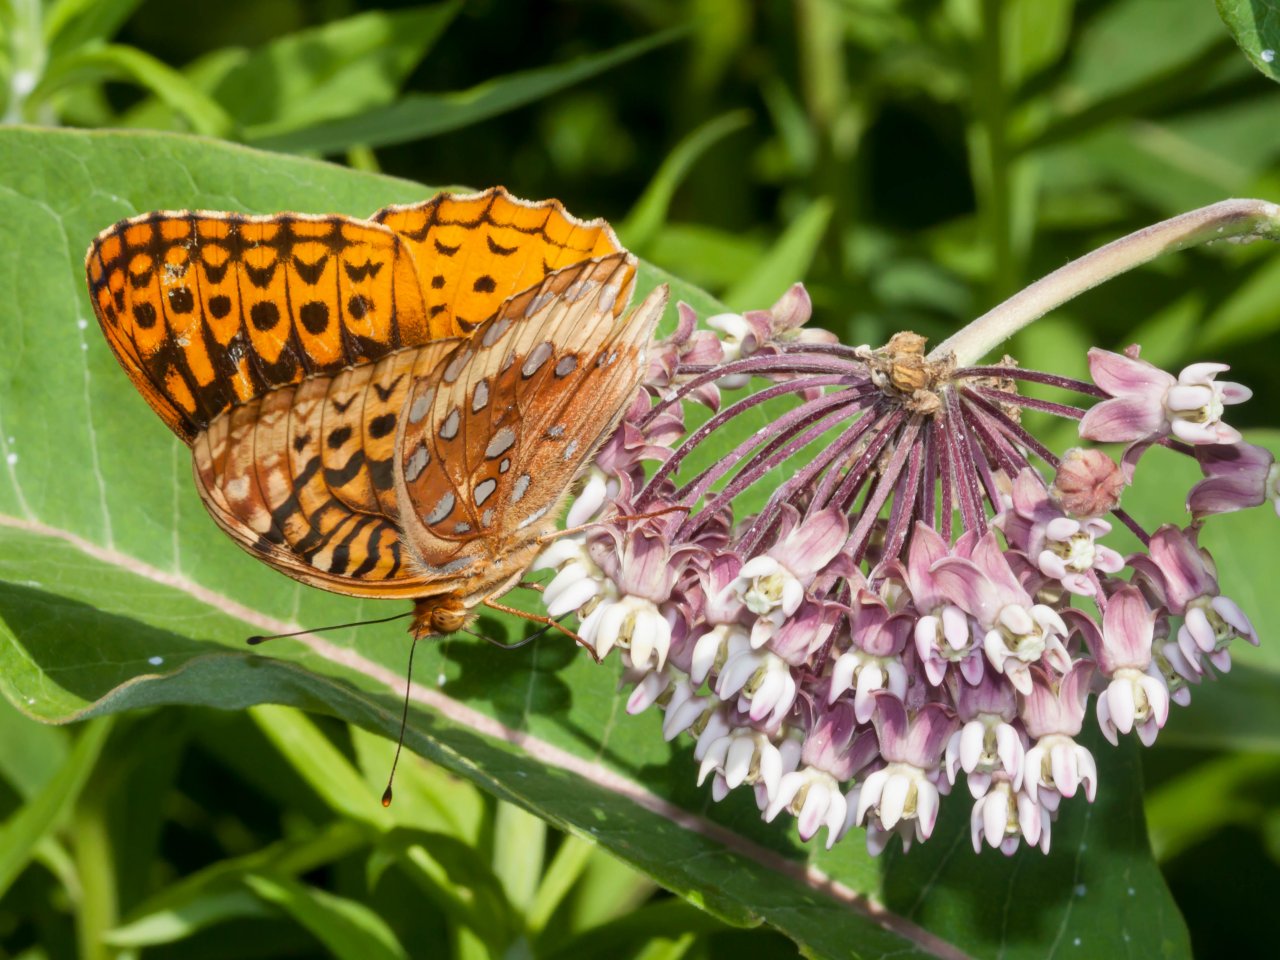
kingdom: Animalia
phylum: Arthropoda
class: Insecta
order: Lepidoptera
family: Nymphalidae
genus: Speyeria
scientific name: Speyeria cybele
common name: Great Spangled Fritillary
